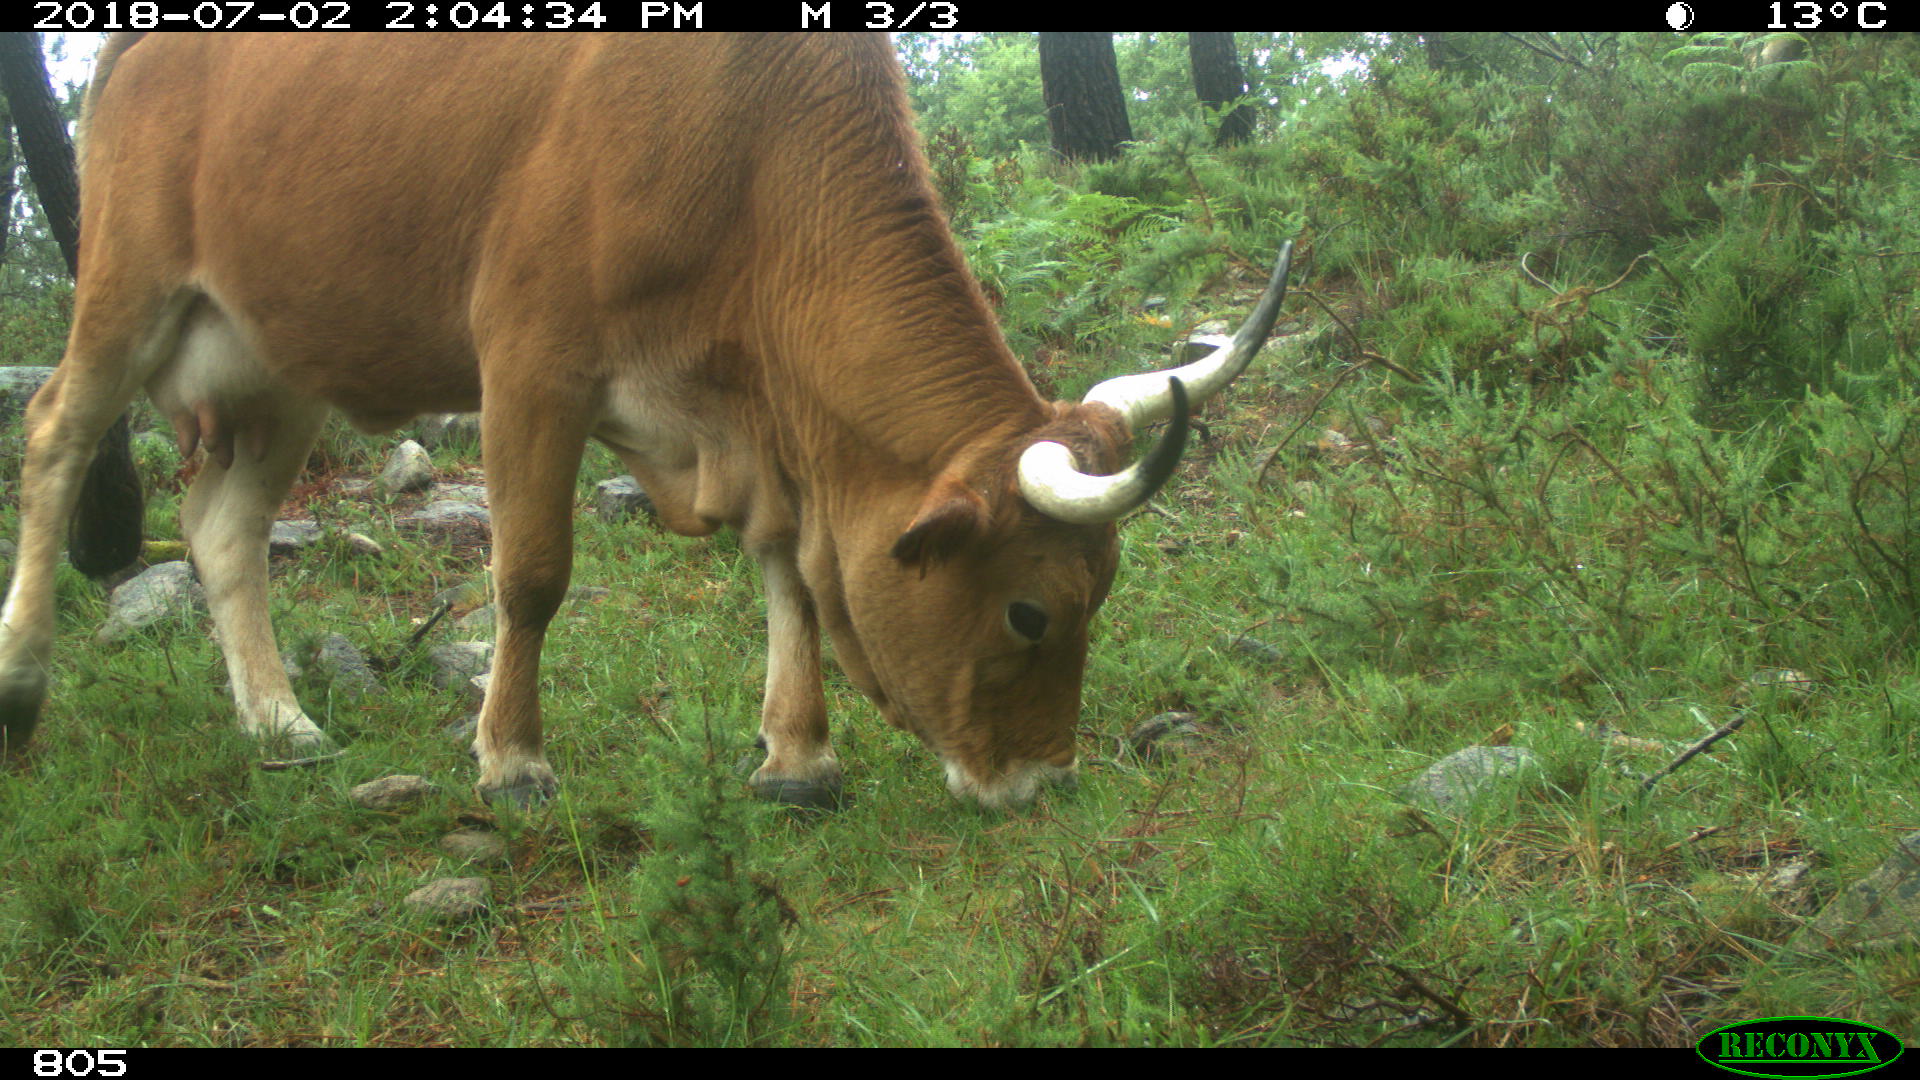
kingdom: Animalia
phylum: Chordata
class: Mammalia
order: Artiodactyla
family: Bovidae
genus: Bos
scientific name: Bos taurus
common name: Domesticated cattle
